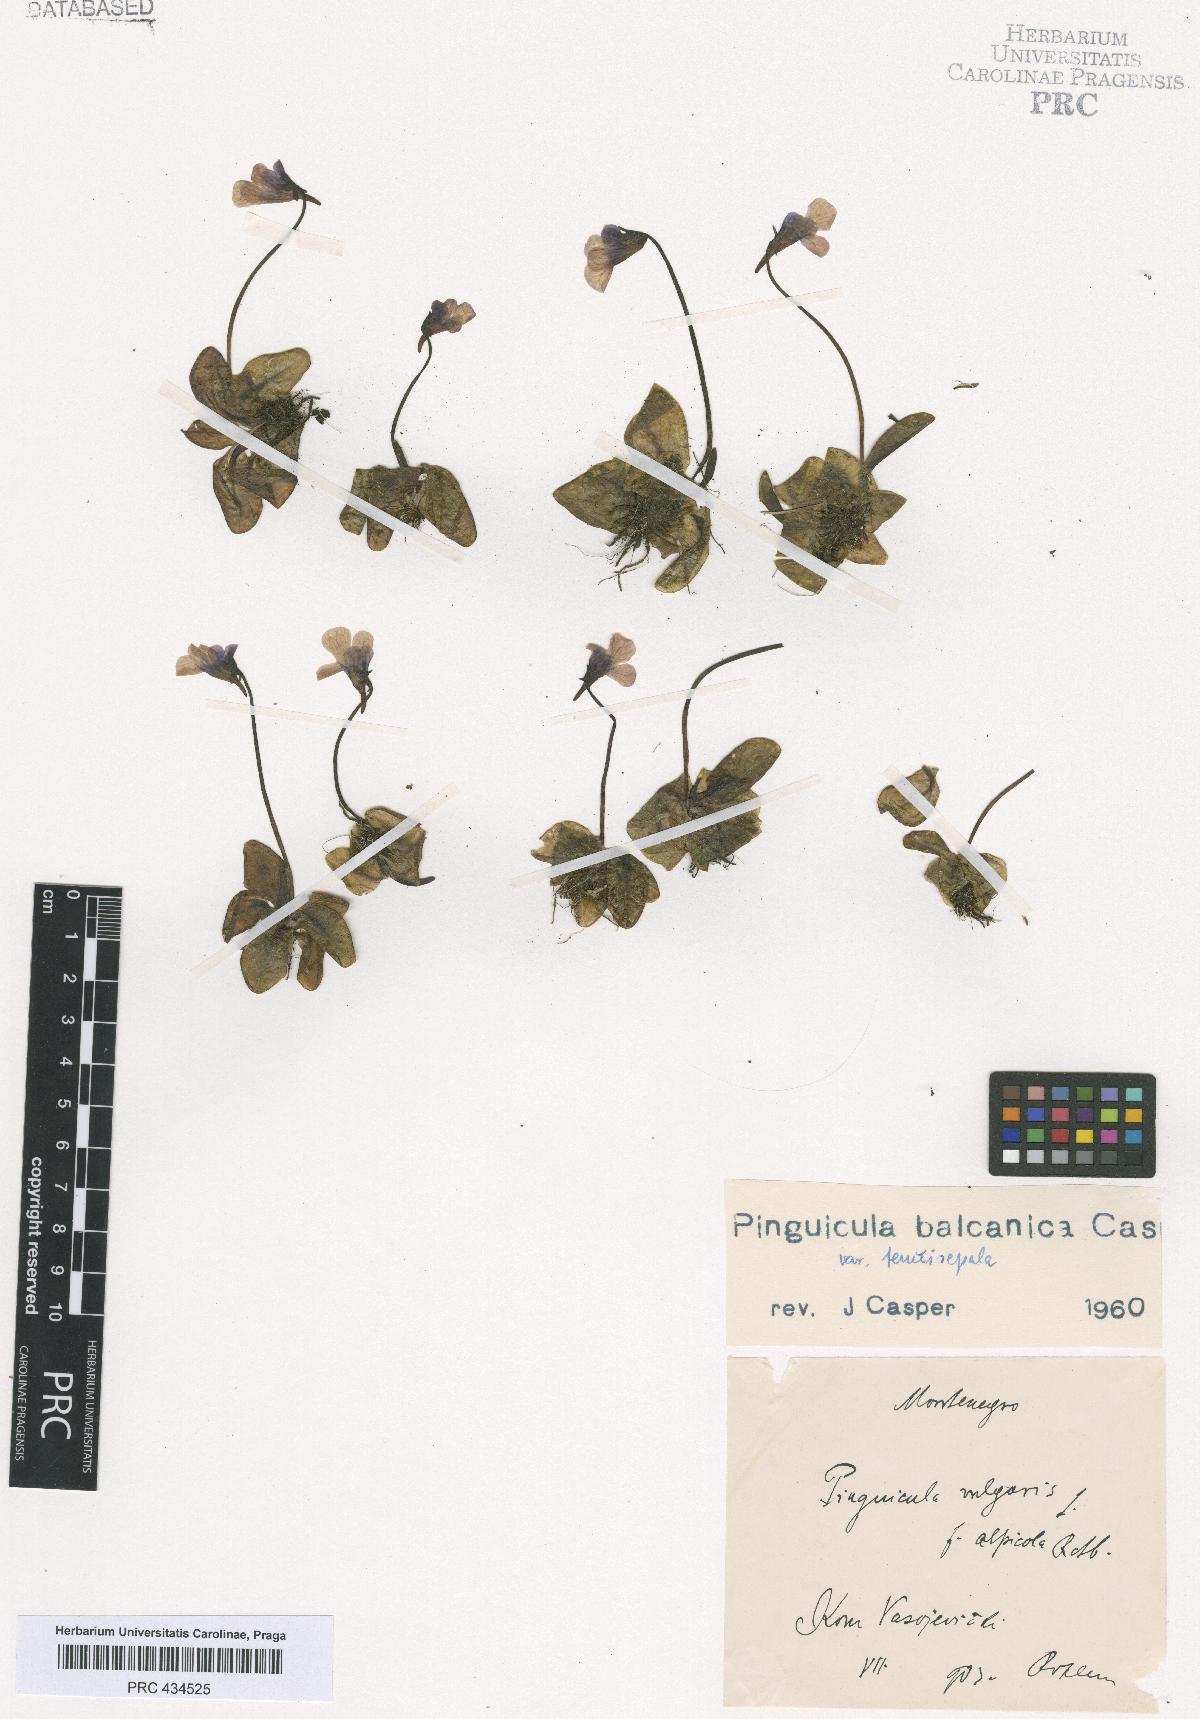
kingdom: Plantae
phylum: Tracheophyta
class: Magnoliopsida
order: Lamiales
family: Lentibulariaceae
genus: Pinguicula
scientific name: Pinguicula balcanica
